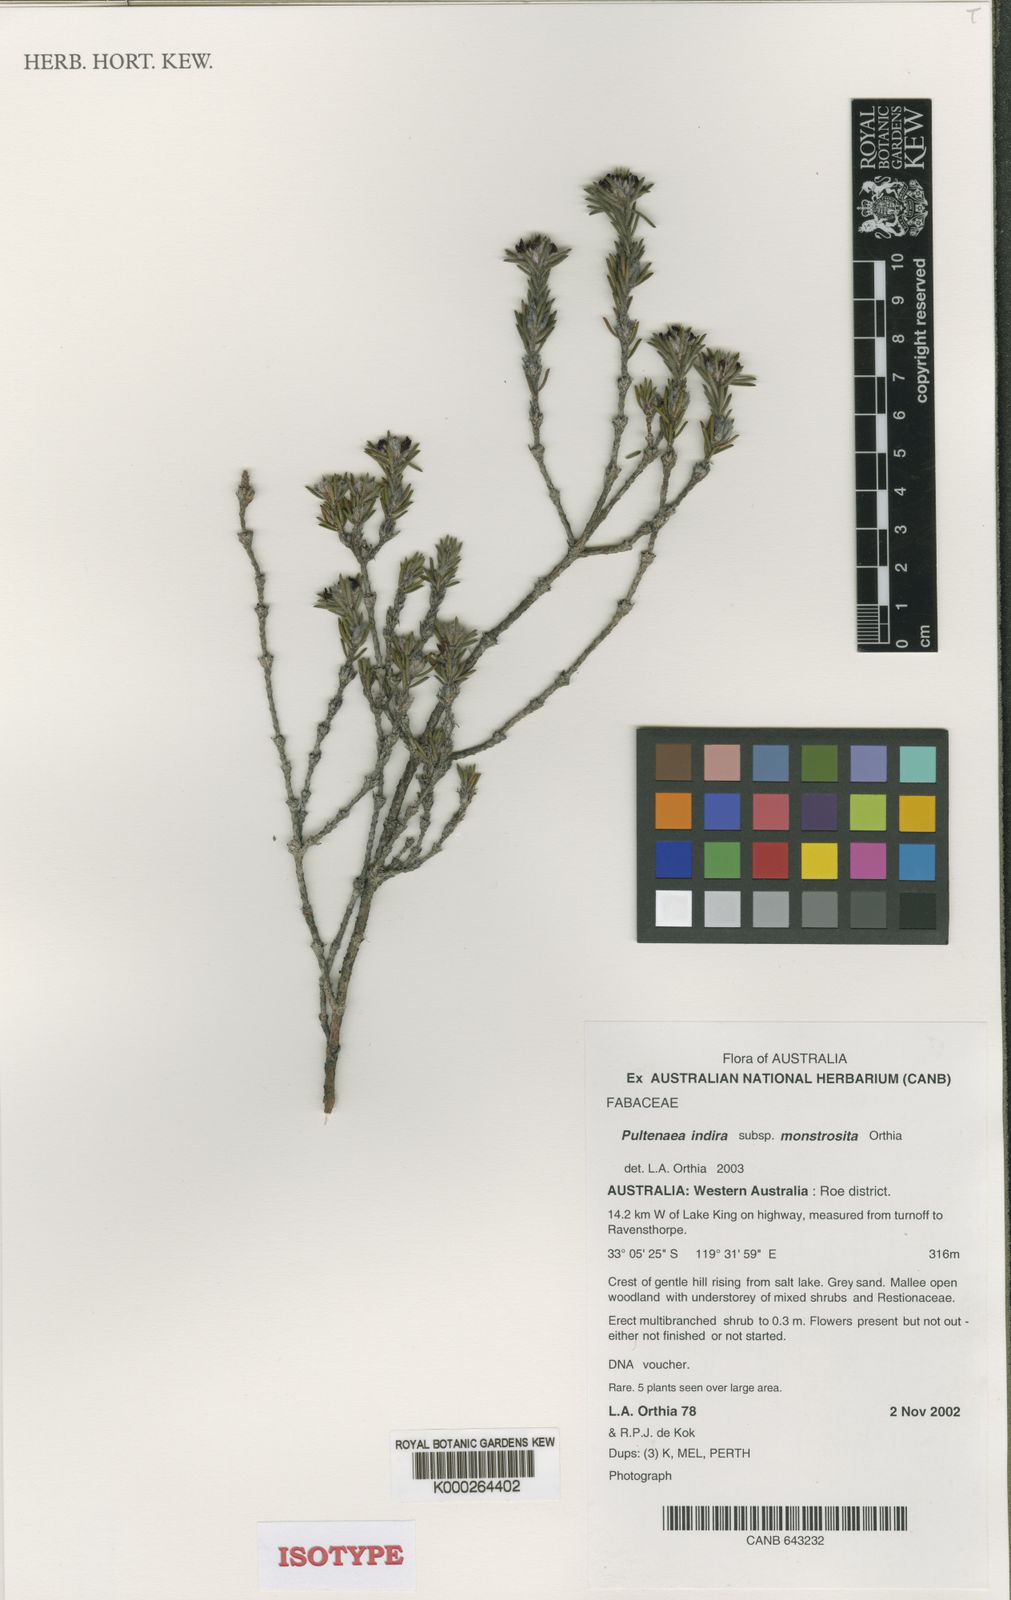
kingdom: Plantae
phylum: Tracheophyta
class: Magnoliopsida
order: Fabales
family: Fabaceae
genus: Pultenaea
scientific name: Pultenaea indira
